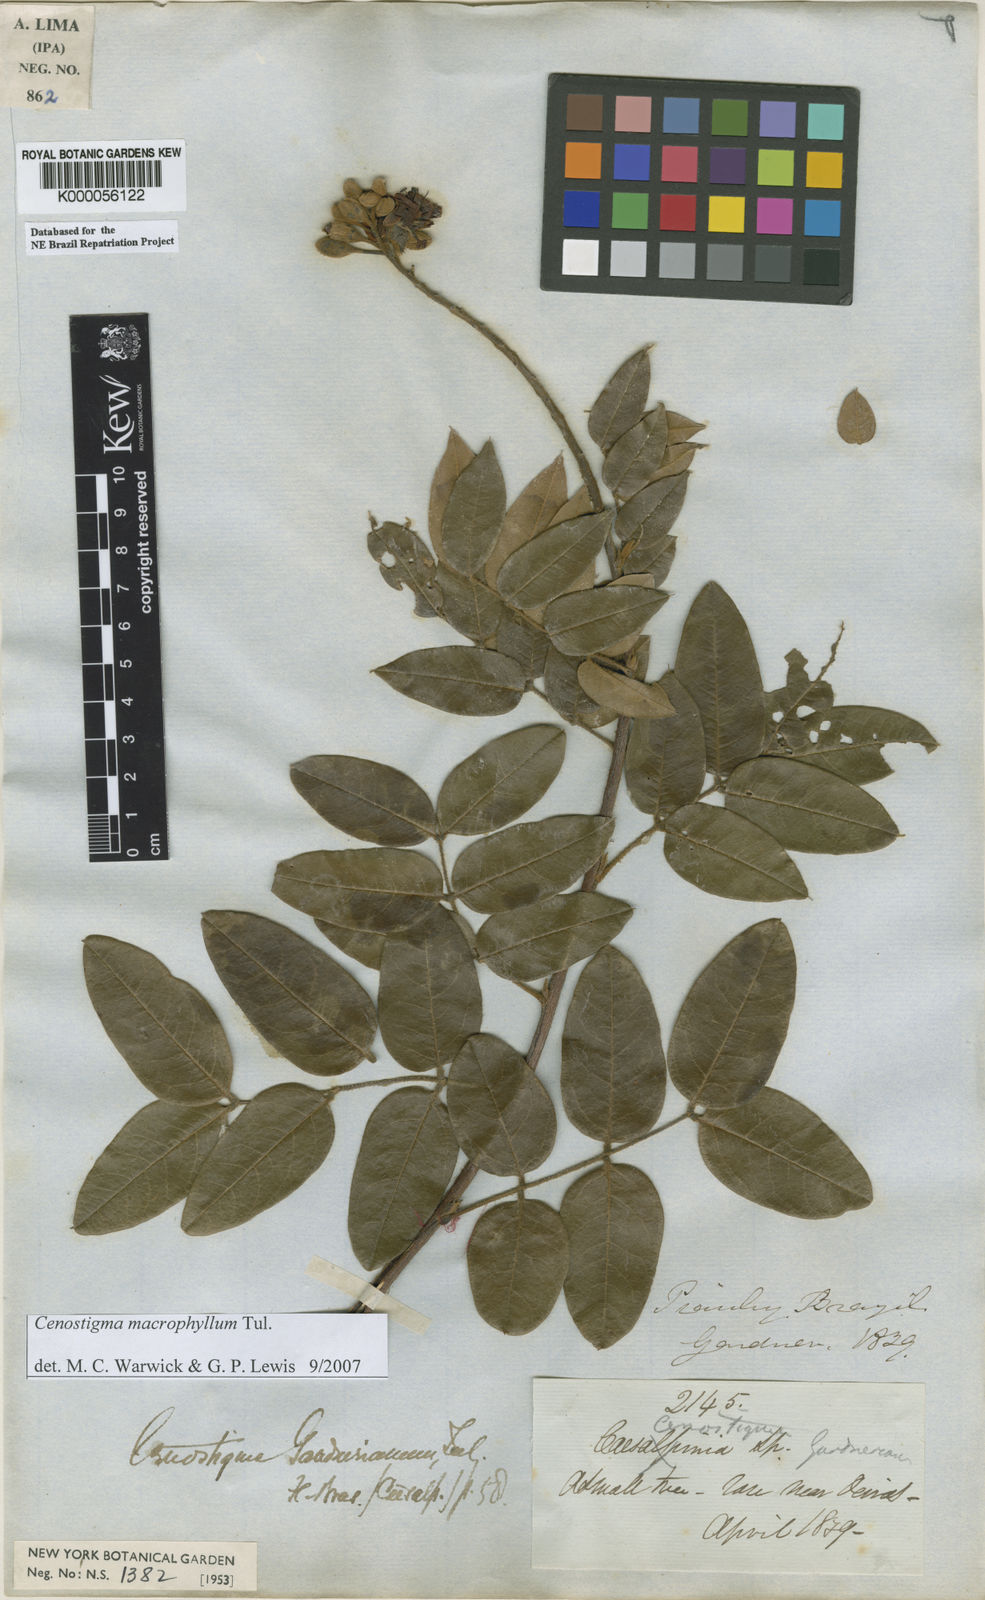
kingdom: Plantae
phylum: Tracheophyta
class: Magnoliopsida
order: Fabales
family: Fabaceae
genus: Cenostigma
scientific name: Cenostigma macrophyllum
